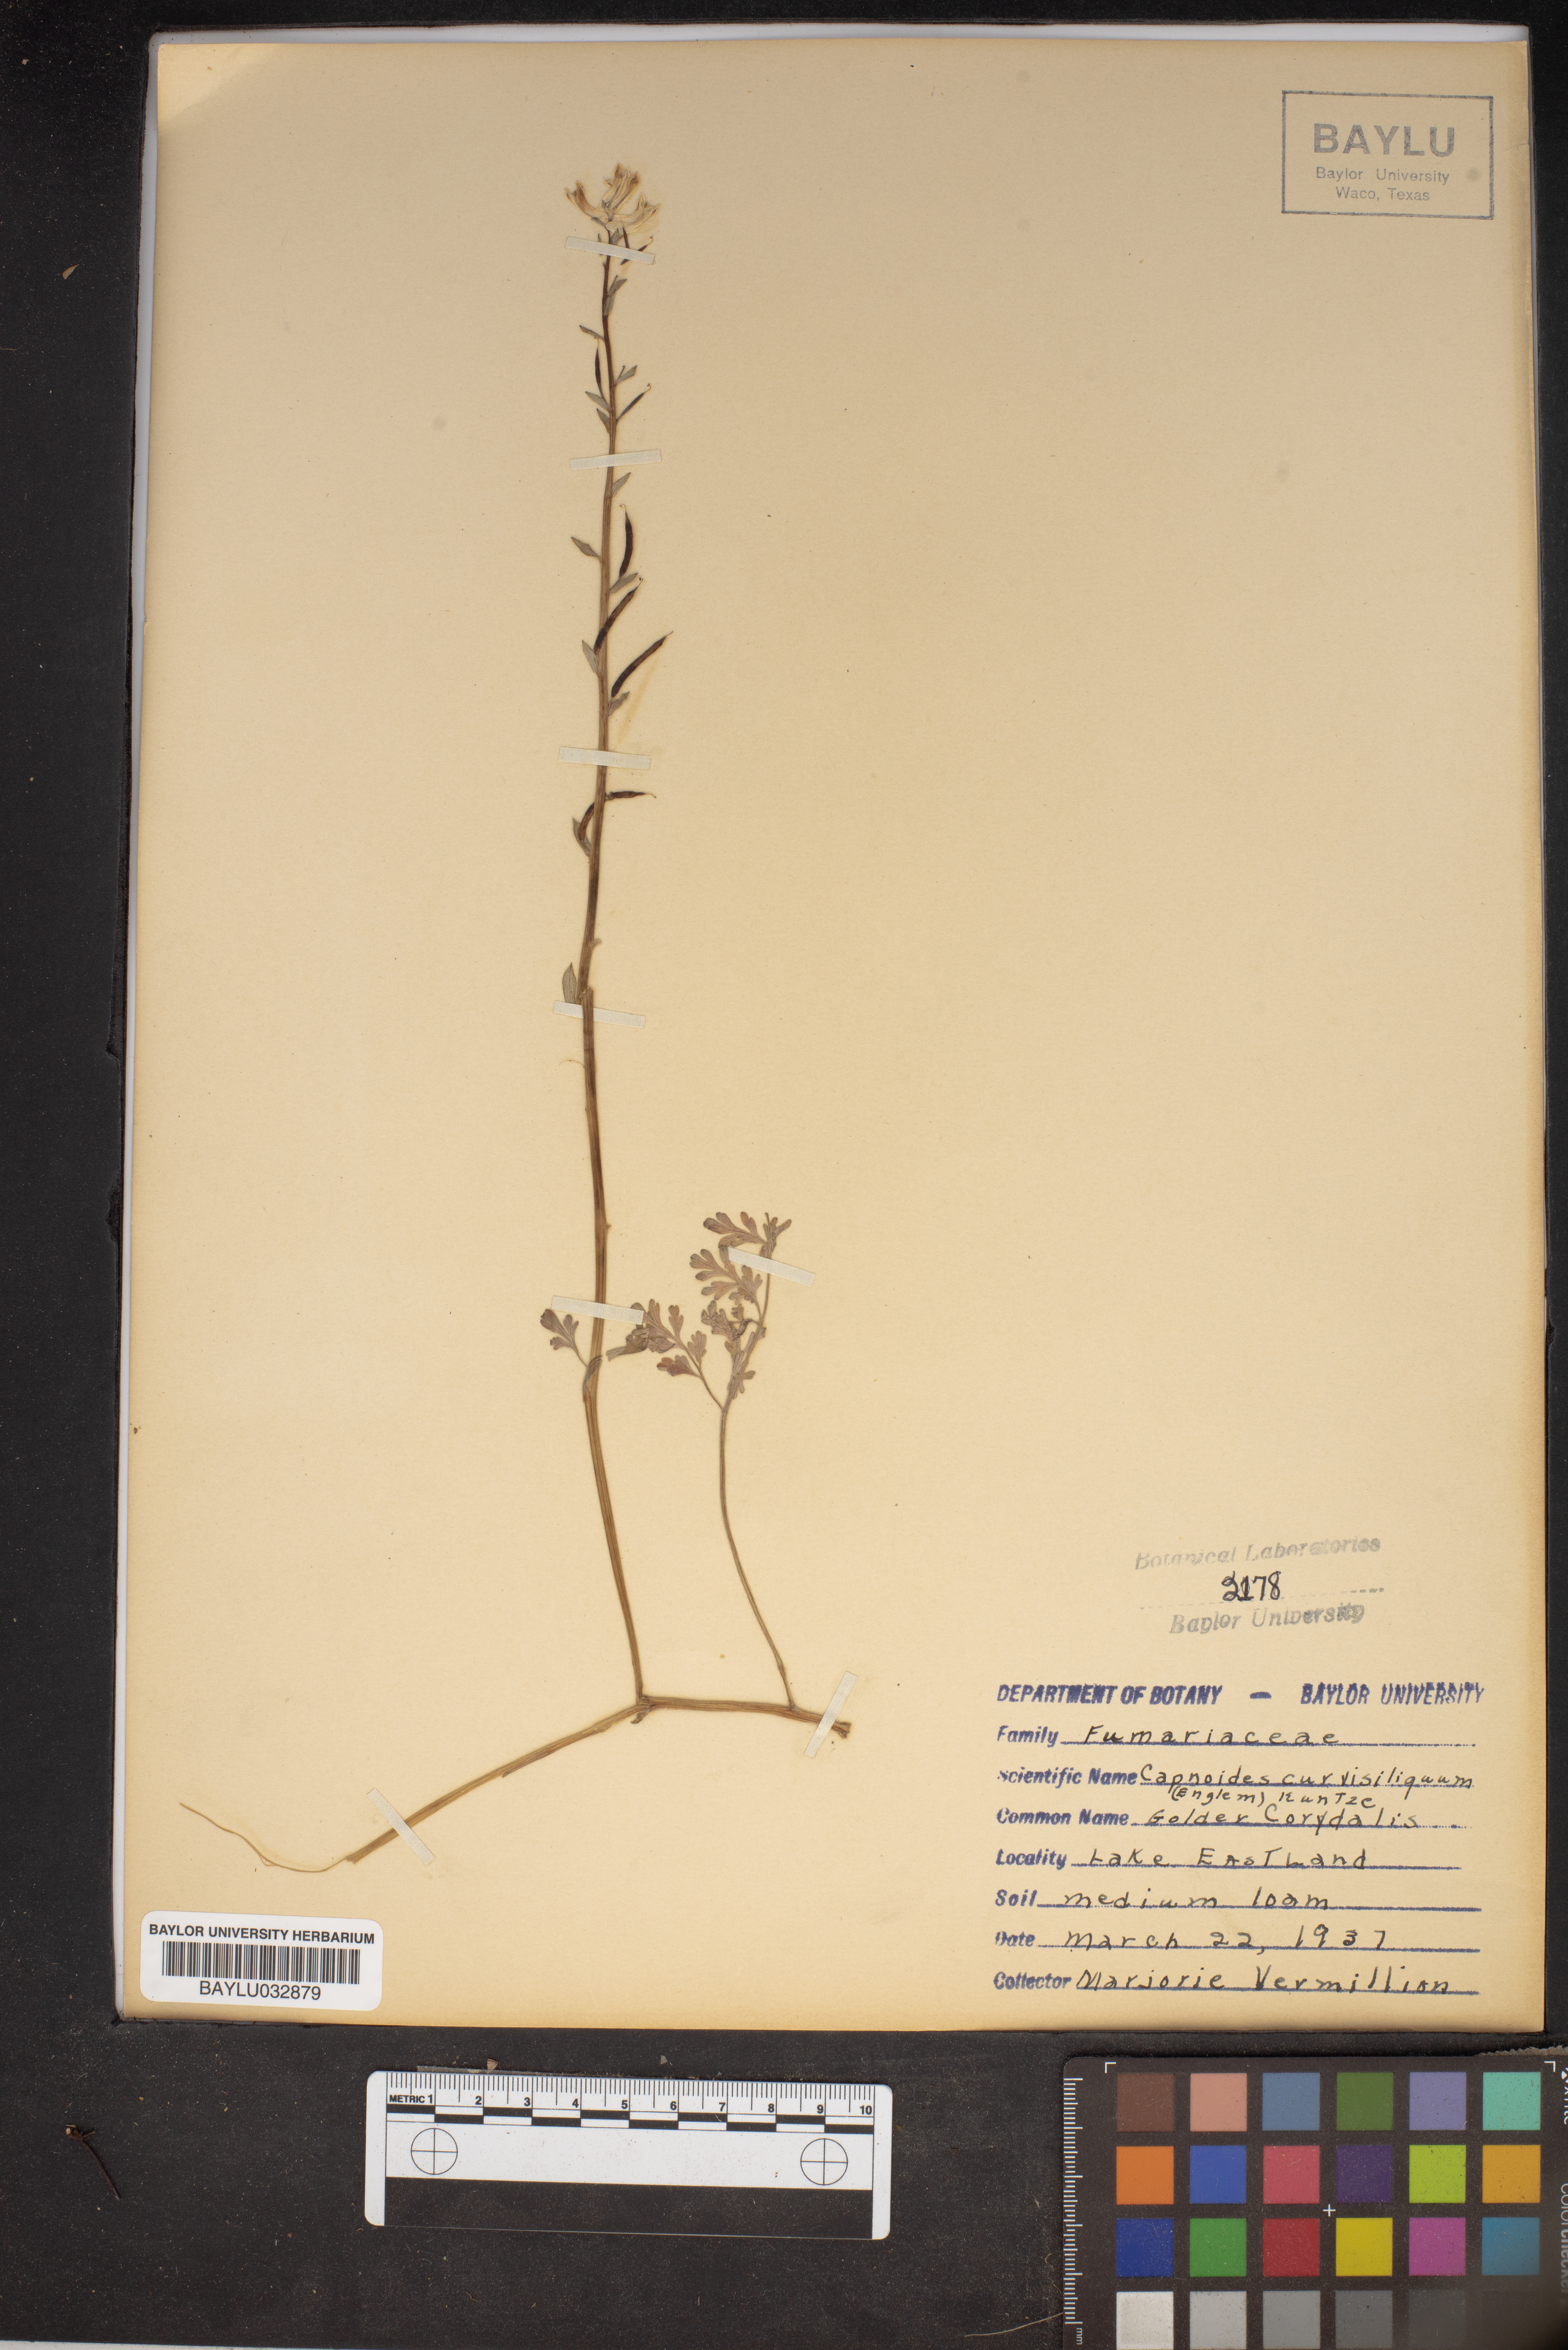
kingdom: Plantae
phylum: Tracheophyta
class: Magnoliopsida
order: Ranunculales
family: Papaveraceae
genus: Corydalis
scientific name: Corydalis curvisiliqua
